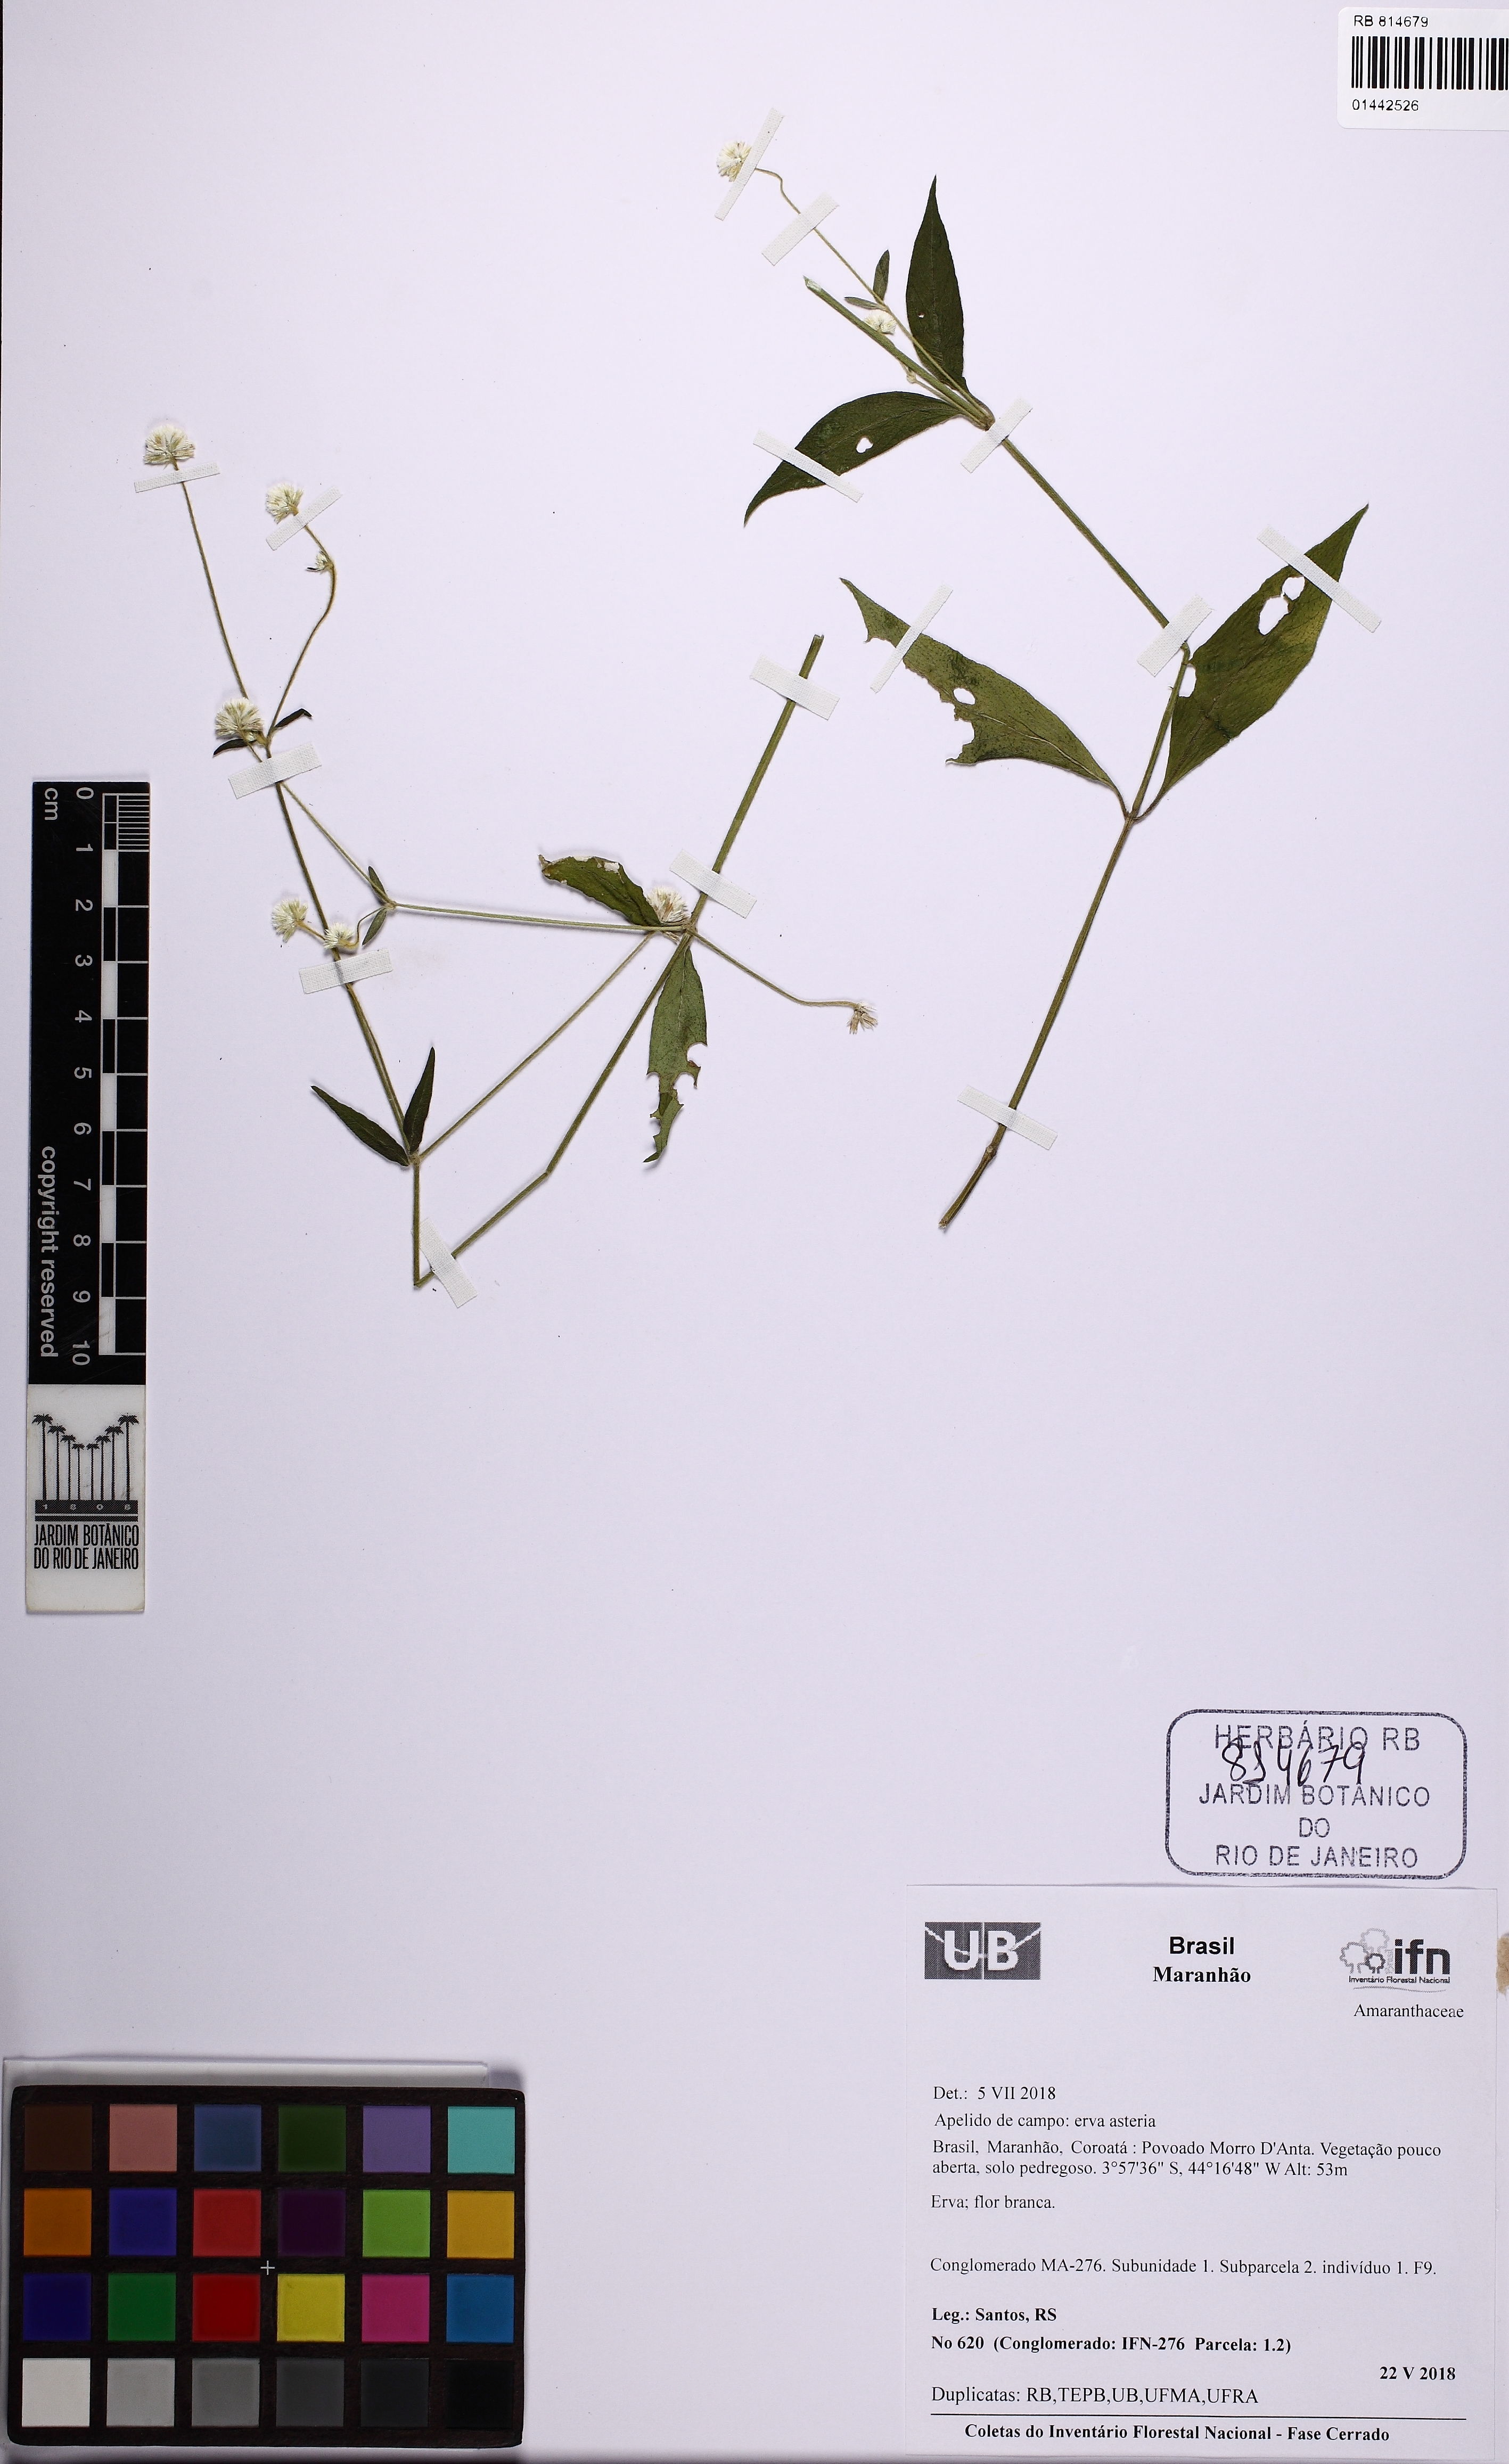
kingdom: Plantae
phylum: Tracheophyta
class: Magnoliopsida
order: Caryophyllales
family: Amaranthaceae
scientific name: Amaranthaceae
